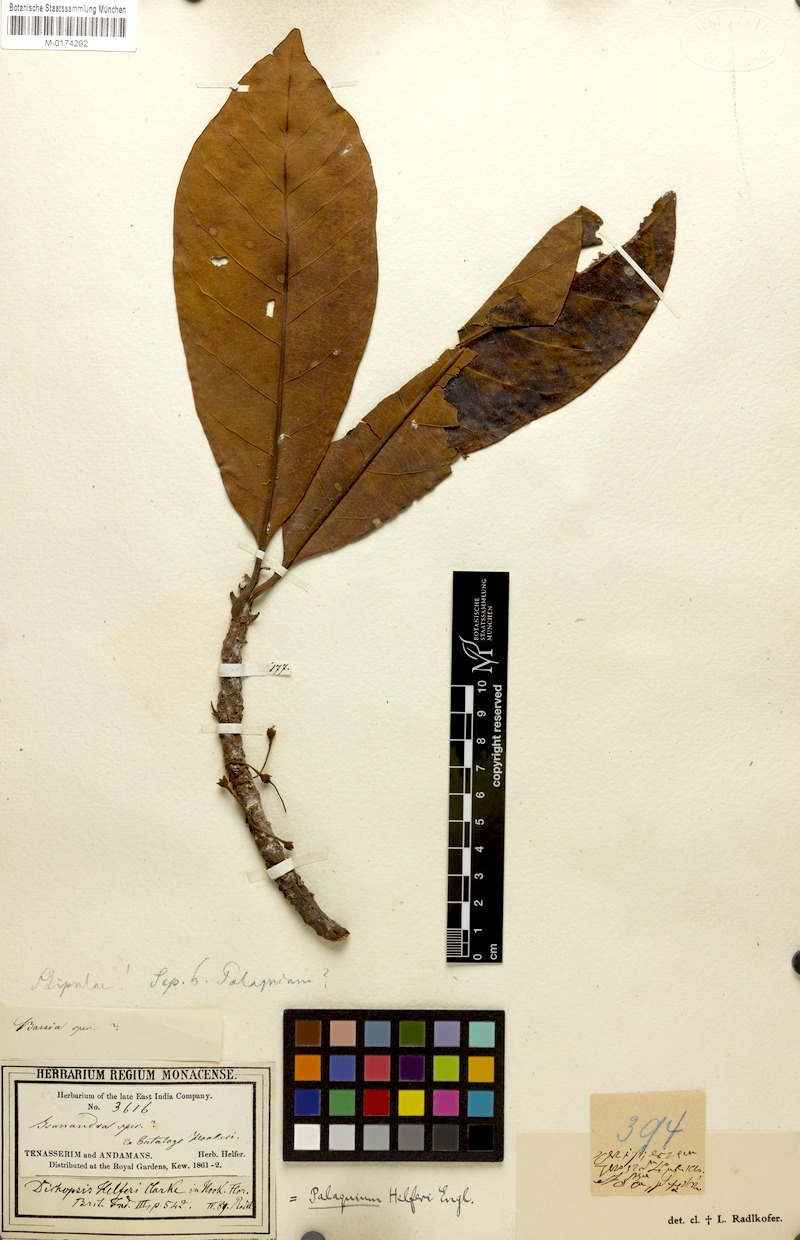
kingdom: Plantae
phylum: Tracheophyta
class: Magnoliopsida
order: Ericales
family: Sapotaceae
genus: Palaquium
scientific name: Palaquium obovatum
